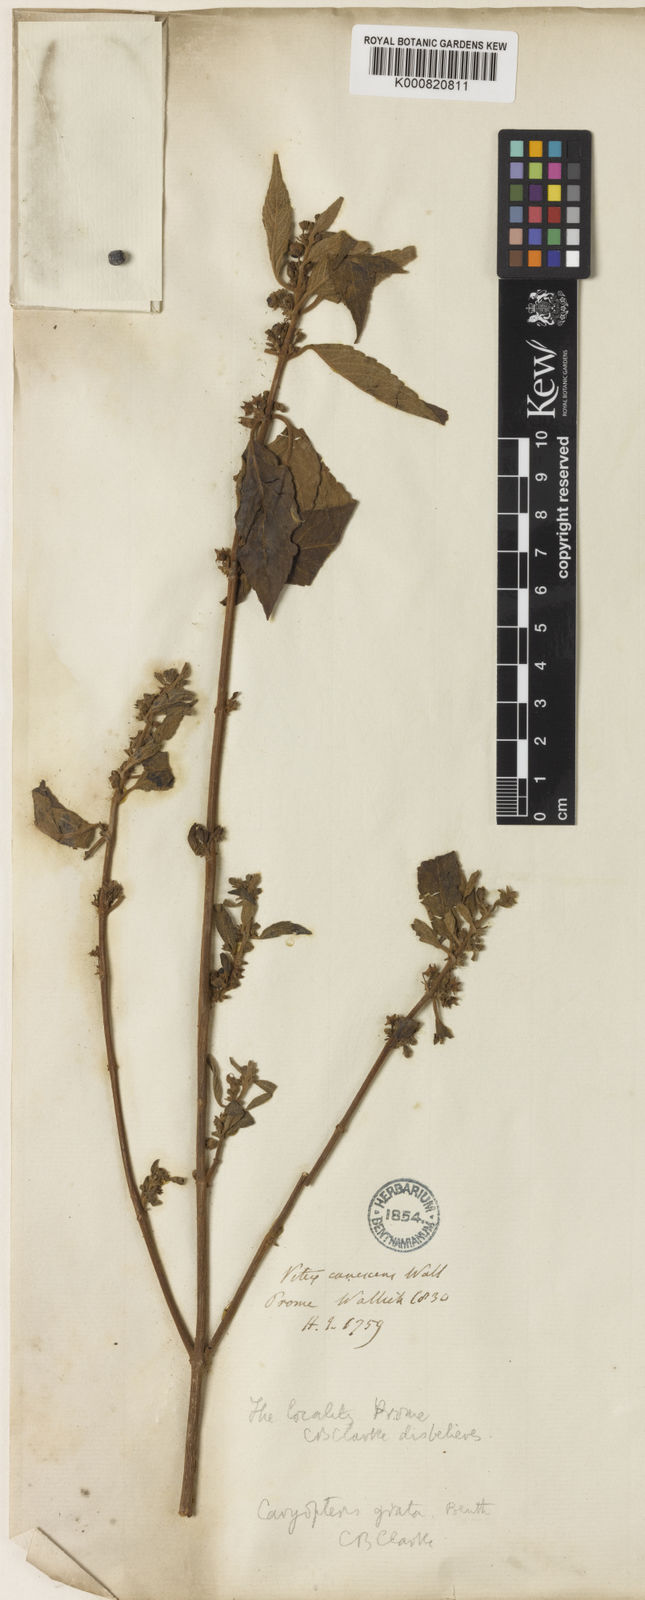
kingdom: Plantae
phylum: Tracheophyta
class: Magnoliopsida
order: Lamiales
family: Lamiaceae
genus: Pseudocaryopteris
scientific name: Pseudocaryopteris foetida
